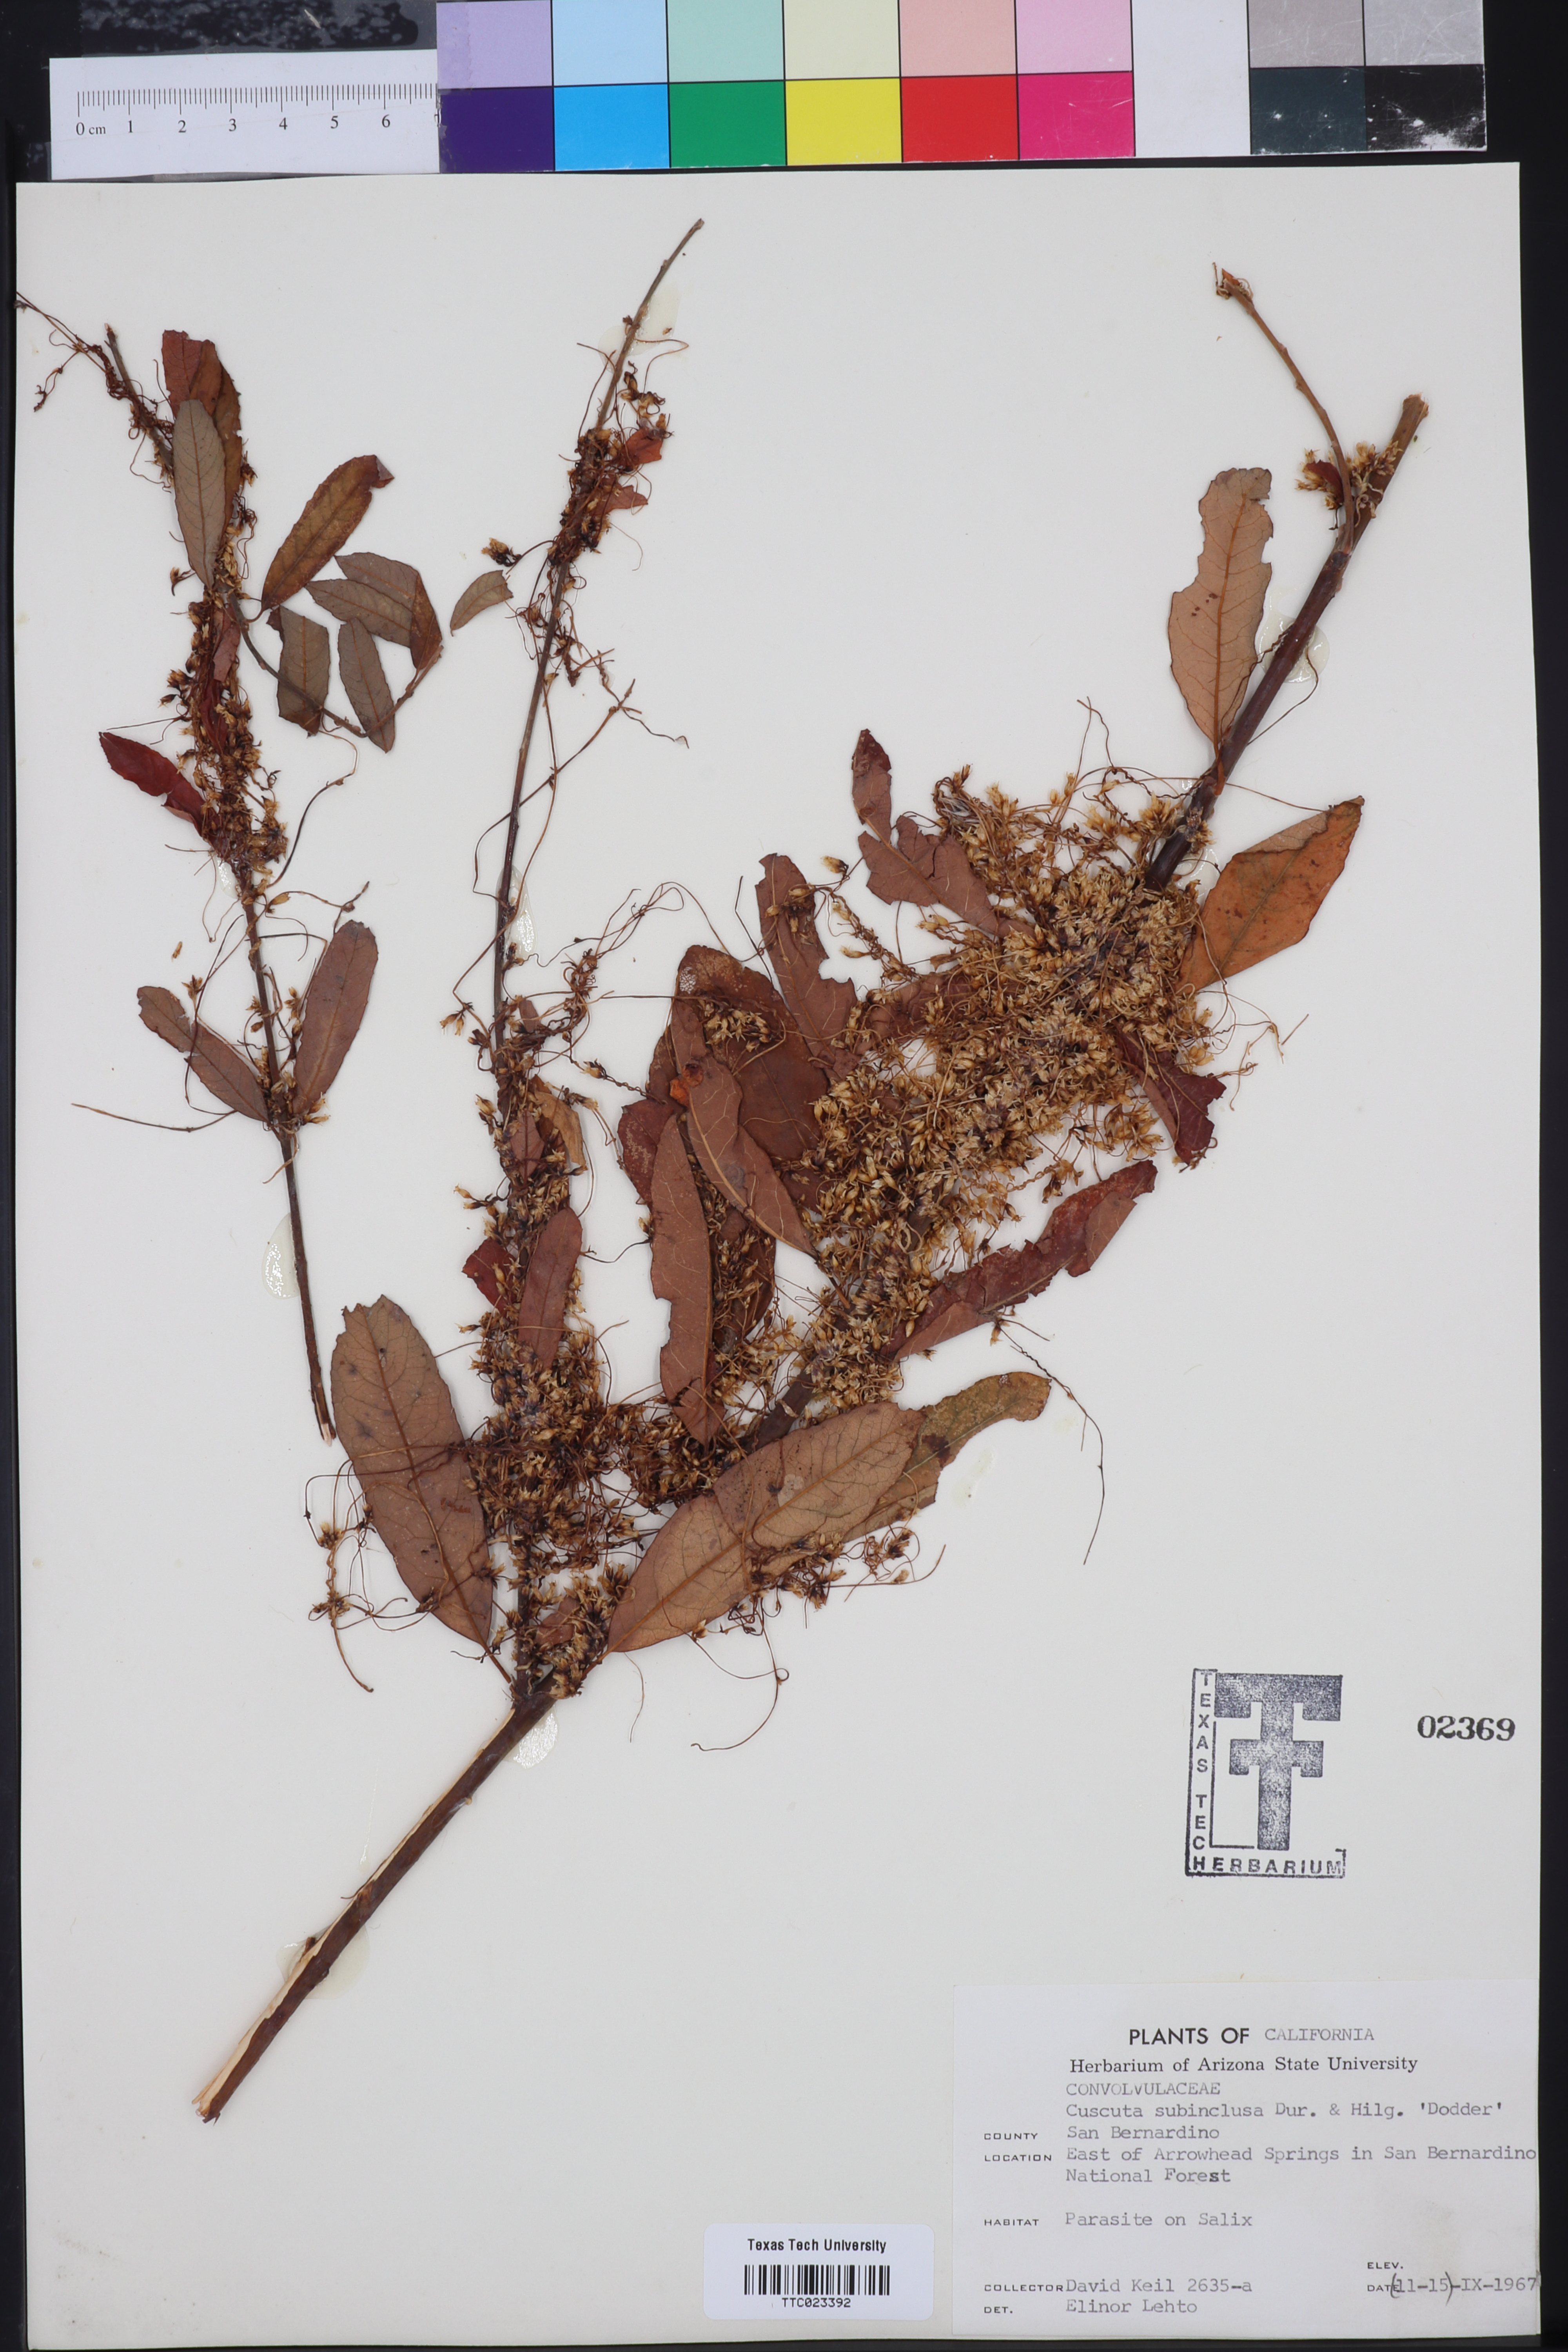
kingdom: Plantae
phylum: Tracheophyta
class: Magnoliopsida
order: Solanales
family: Convolvulaceae
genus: Cuscuta
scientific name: Cuscuta subinclusa
